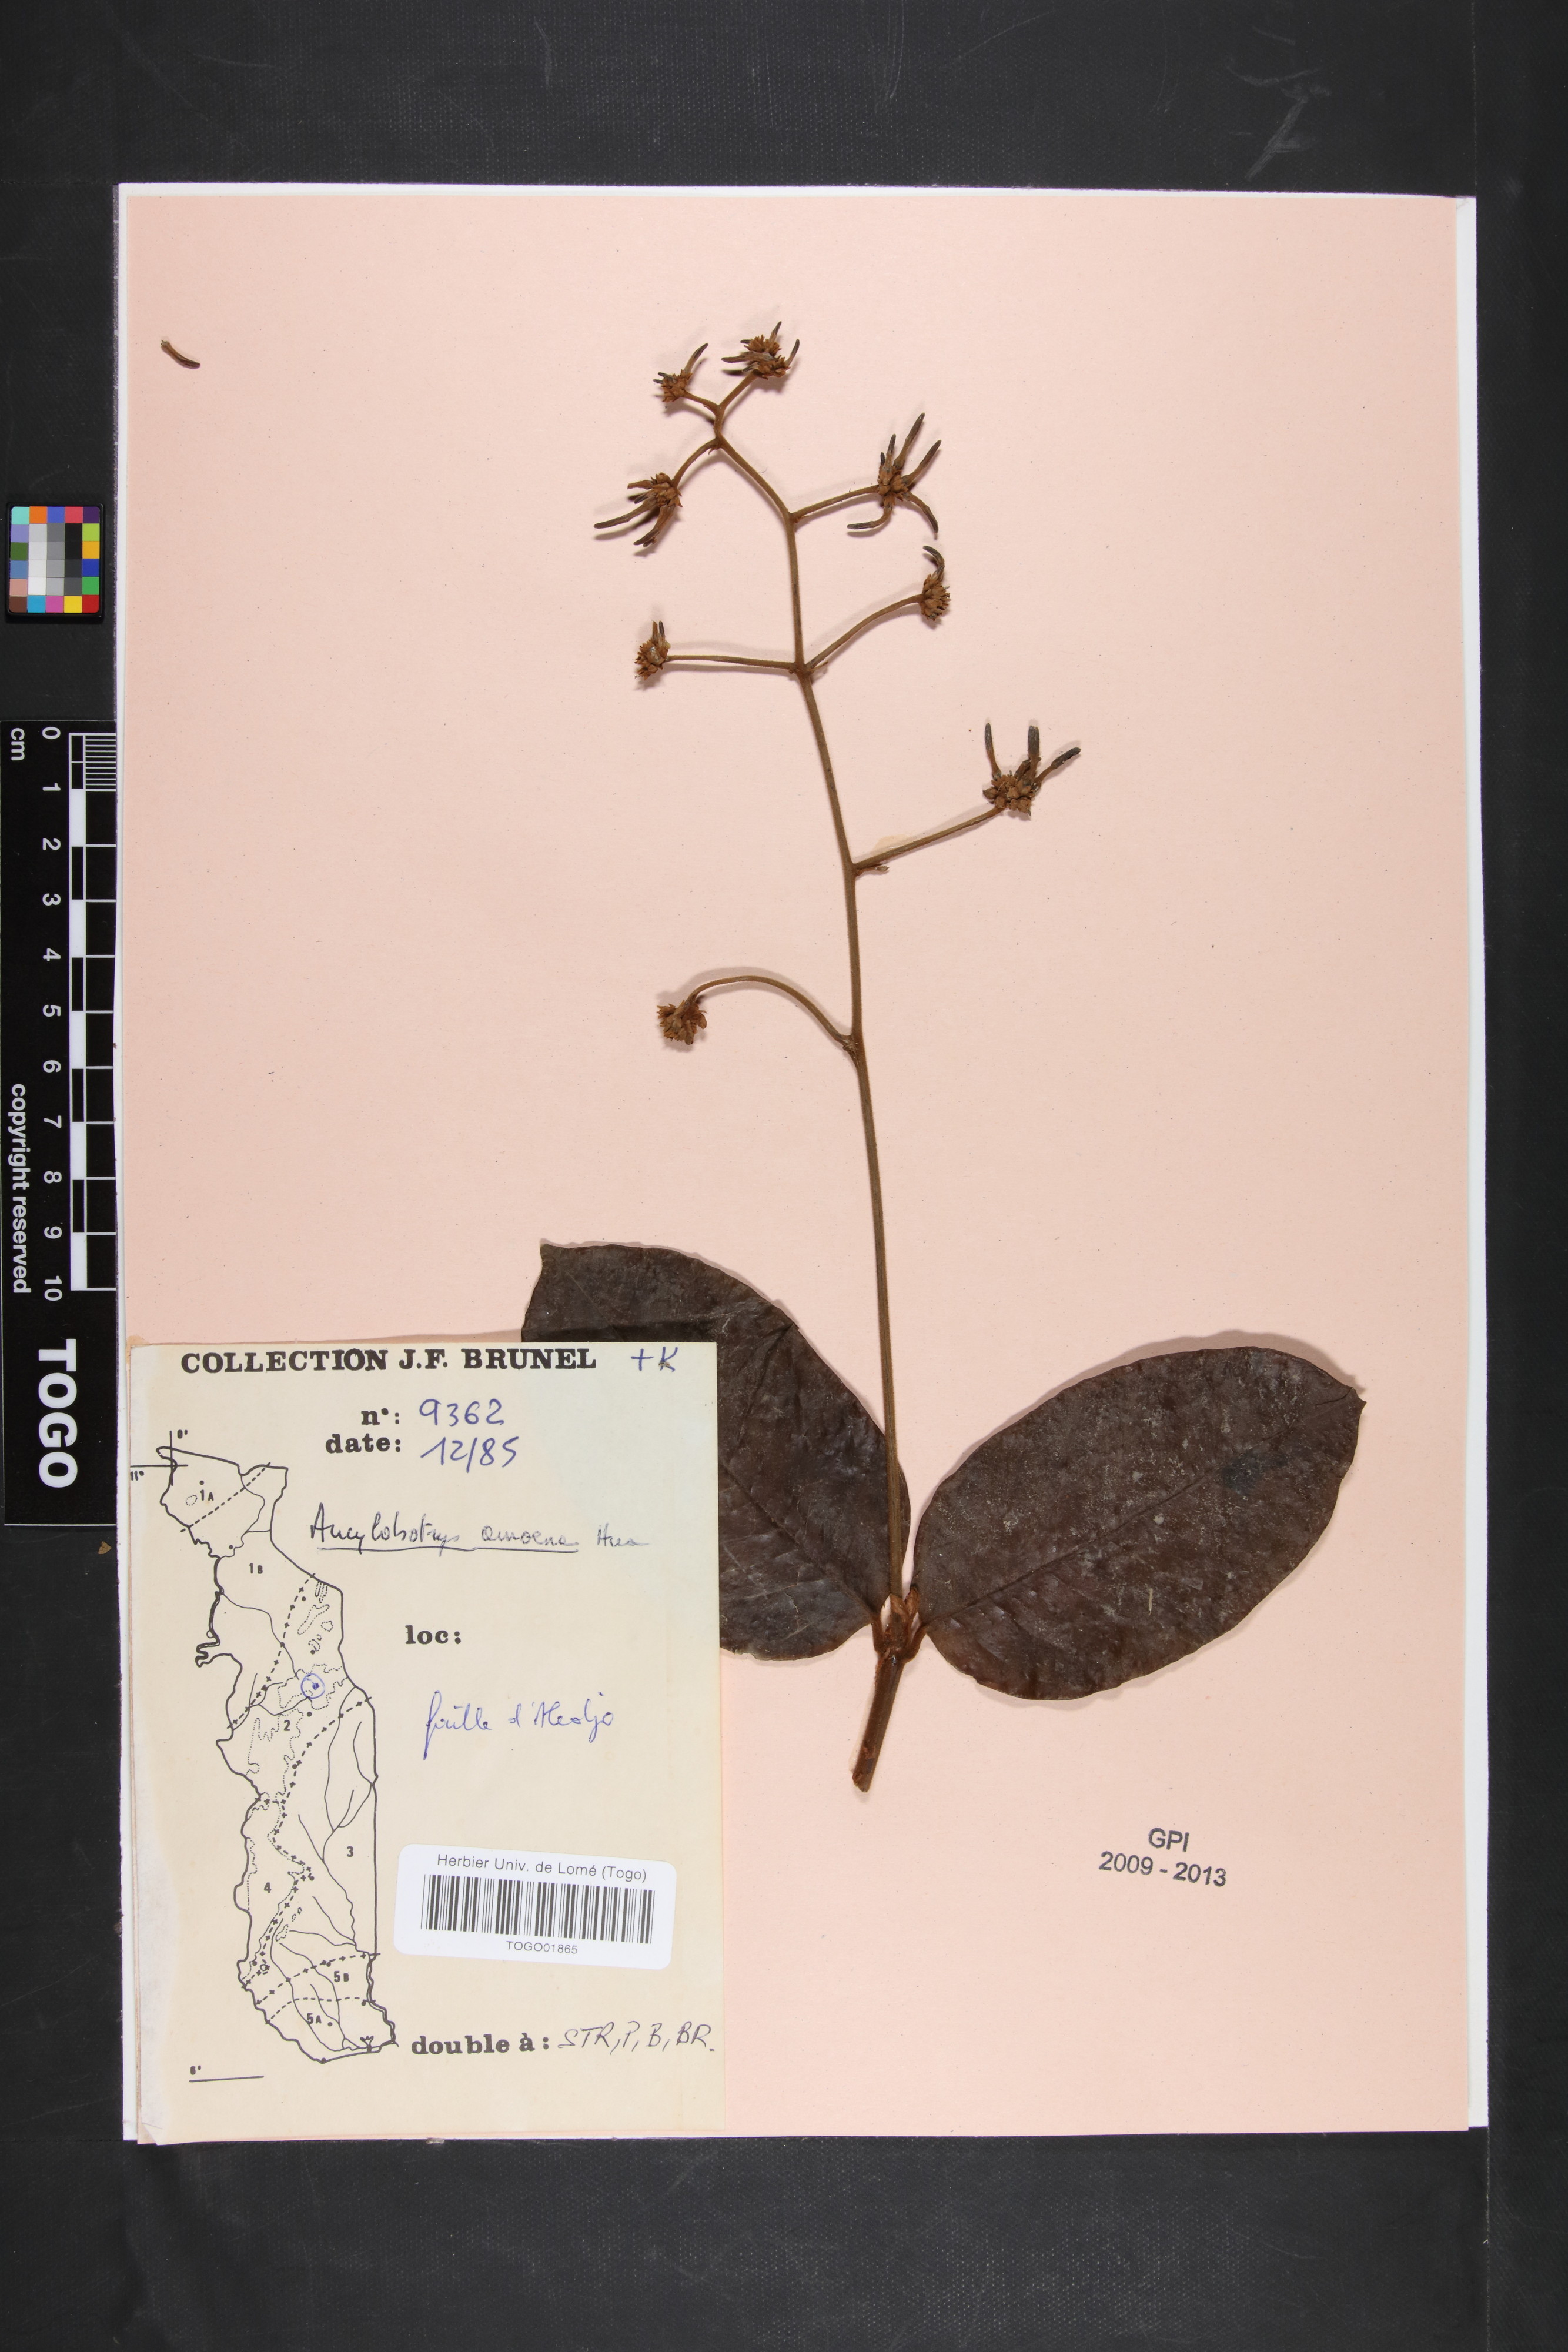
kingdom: Plantae
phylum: Tracheophyta
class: Magnoliopsida
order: Gentianales
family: Apocynaceae
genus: Ancylobothrys
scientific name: Ancylobothrys amoena
